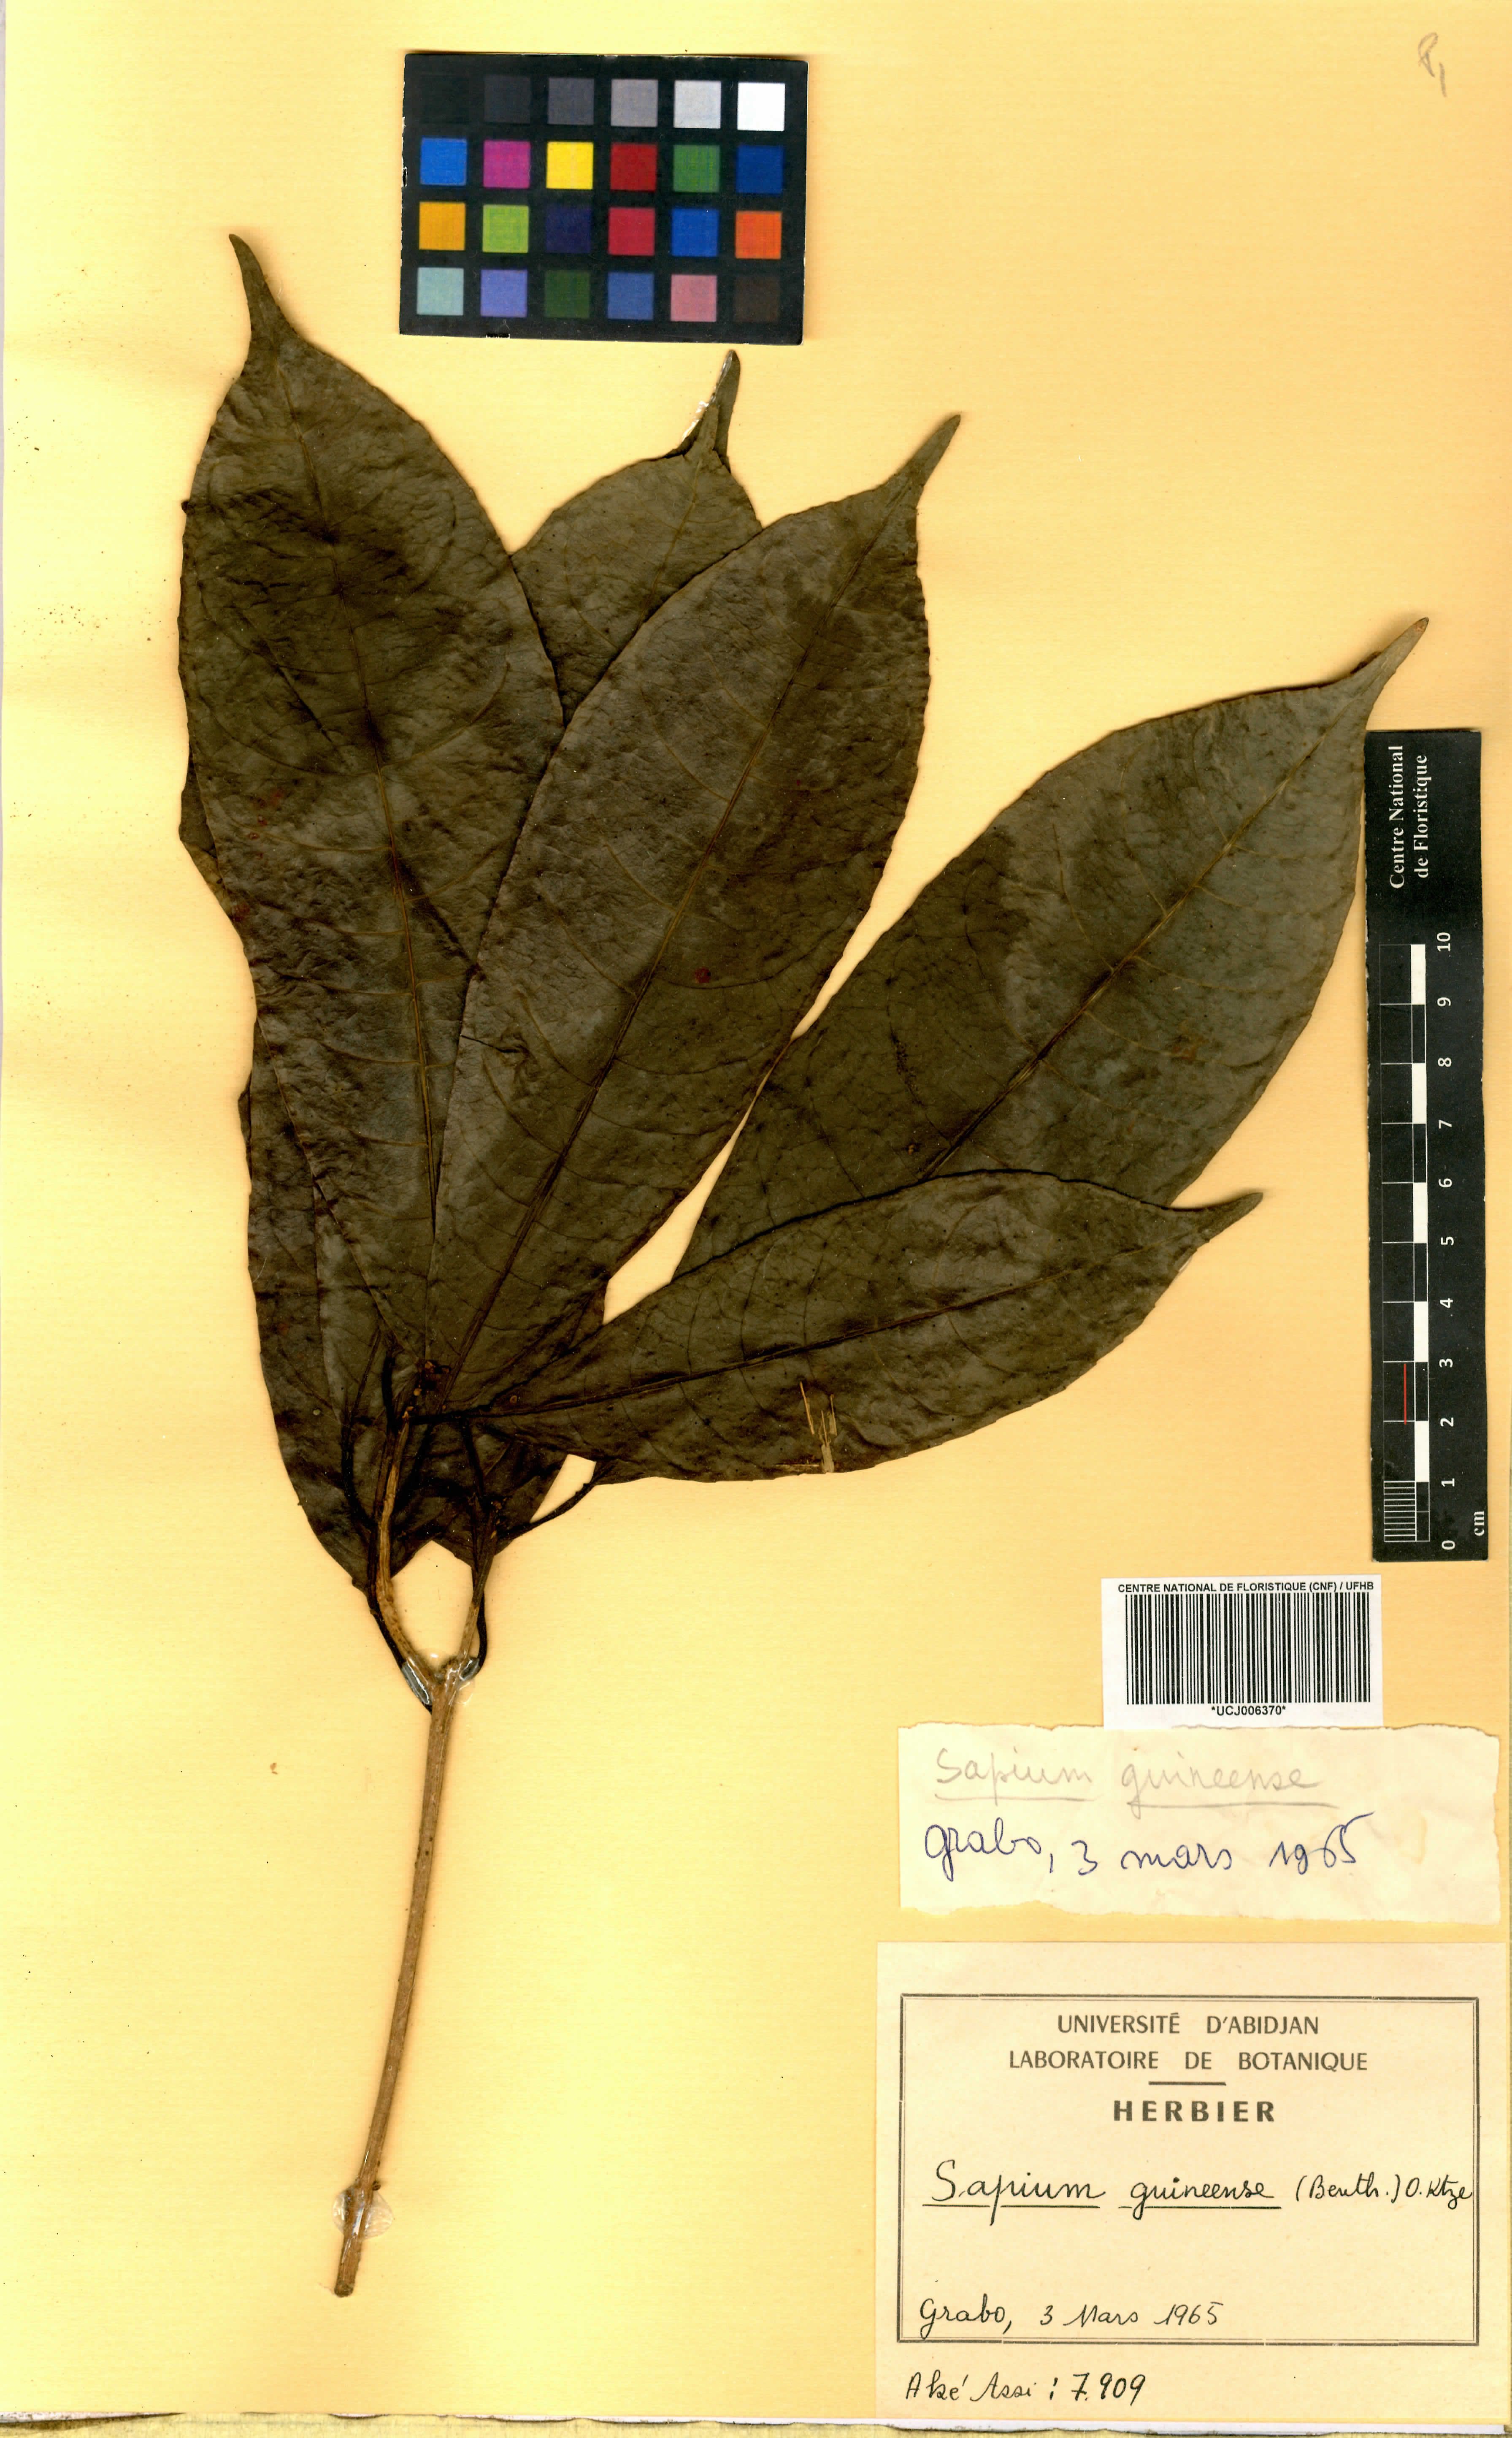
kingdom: Plantae
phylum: Tracheophyta
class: Magnoliopsida
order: Malpighiales
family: Euphorbiaceae
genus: Excoecaria
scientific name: Excoecaria guineensis
